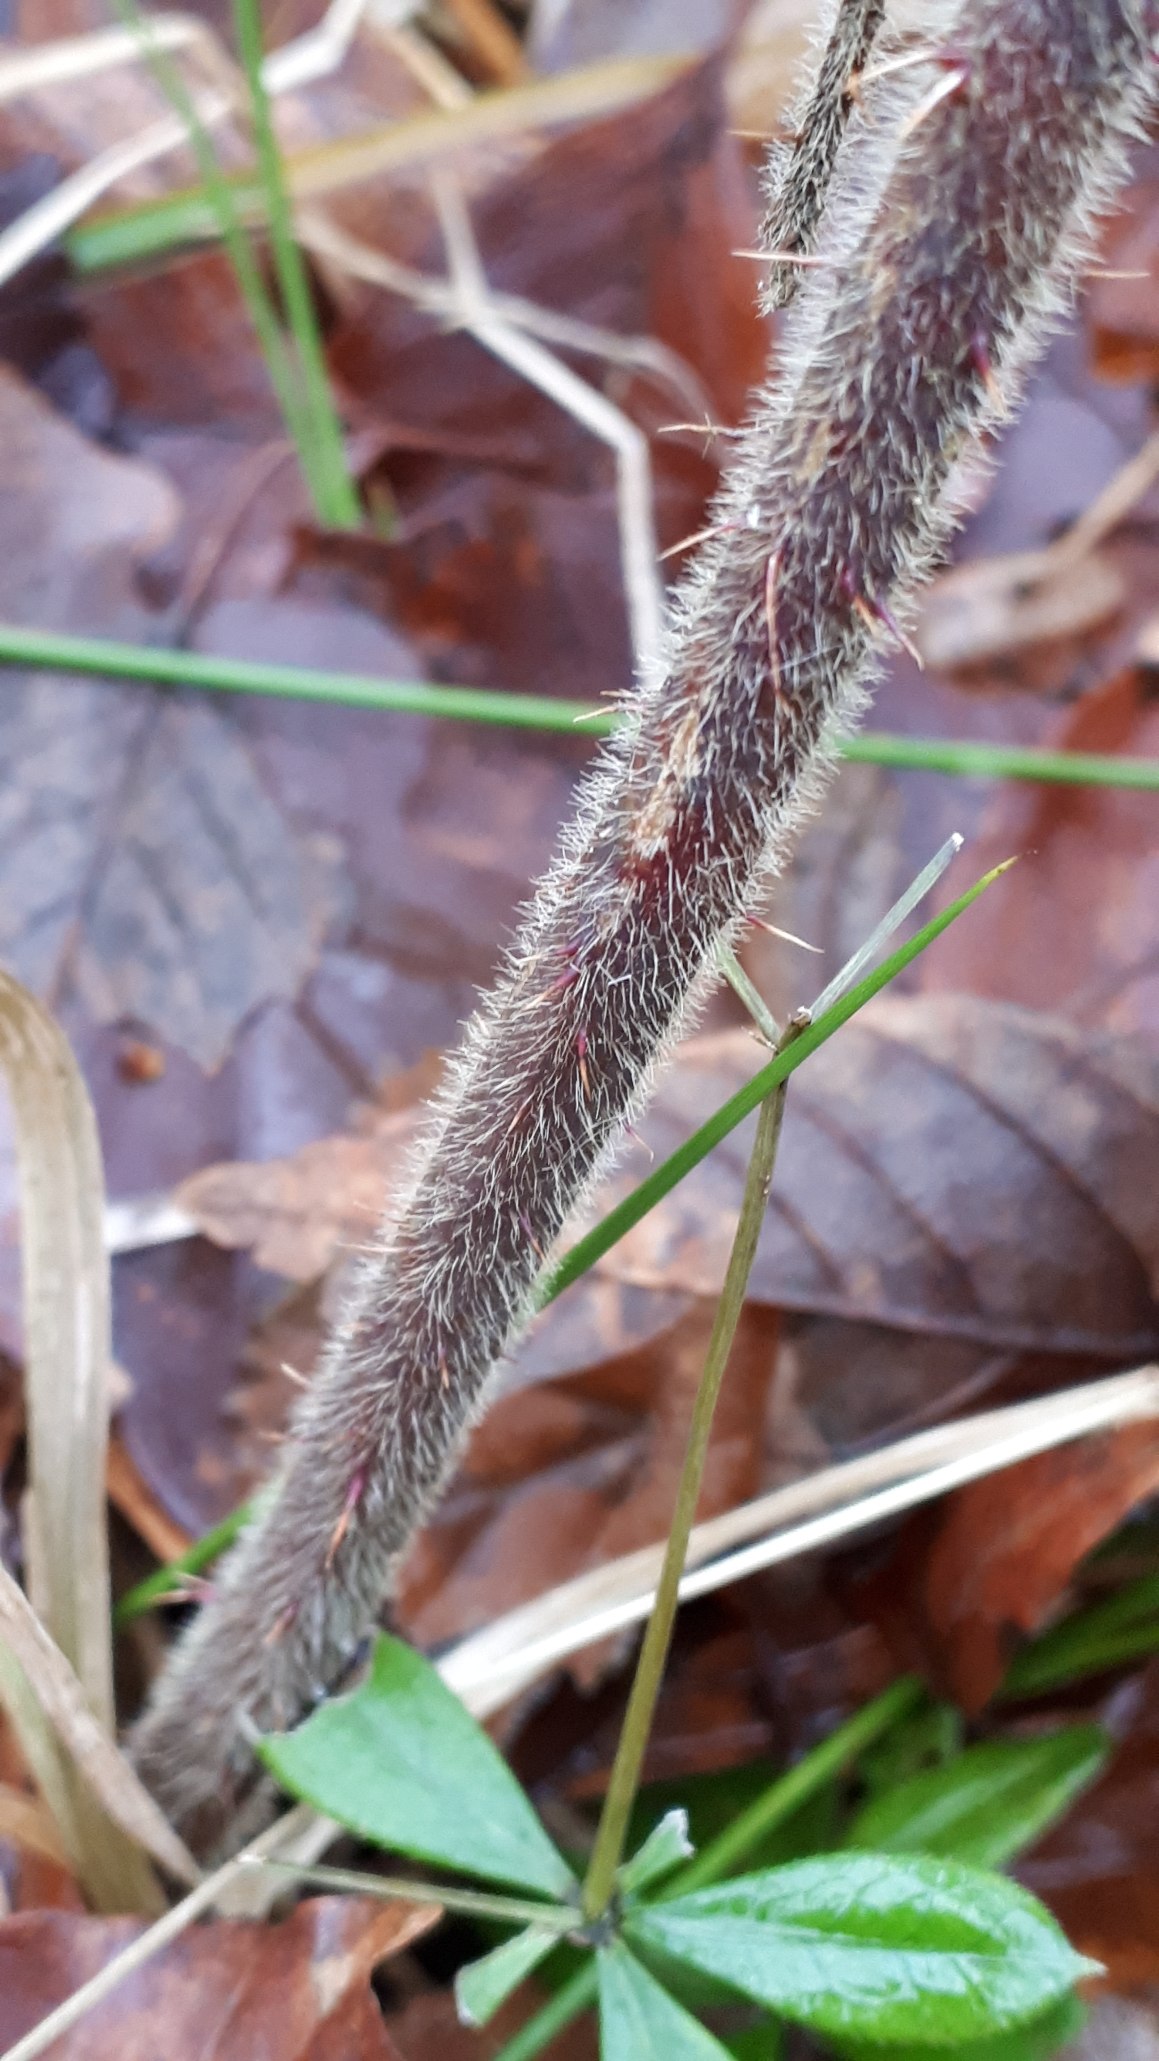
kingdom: Plantae
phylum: Tracheophyta
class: Magnoliopsida
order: Rosales
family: Rosaceae
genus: Rubus
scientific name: Rubus vestitus
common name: Rundbladet brombær
